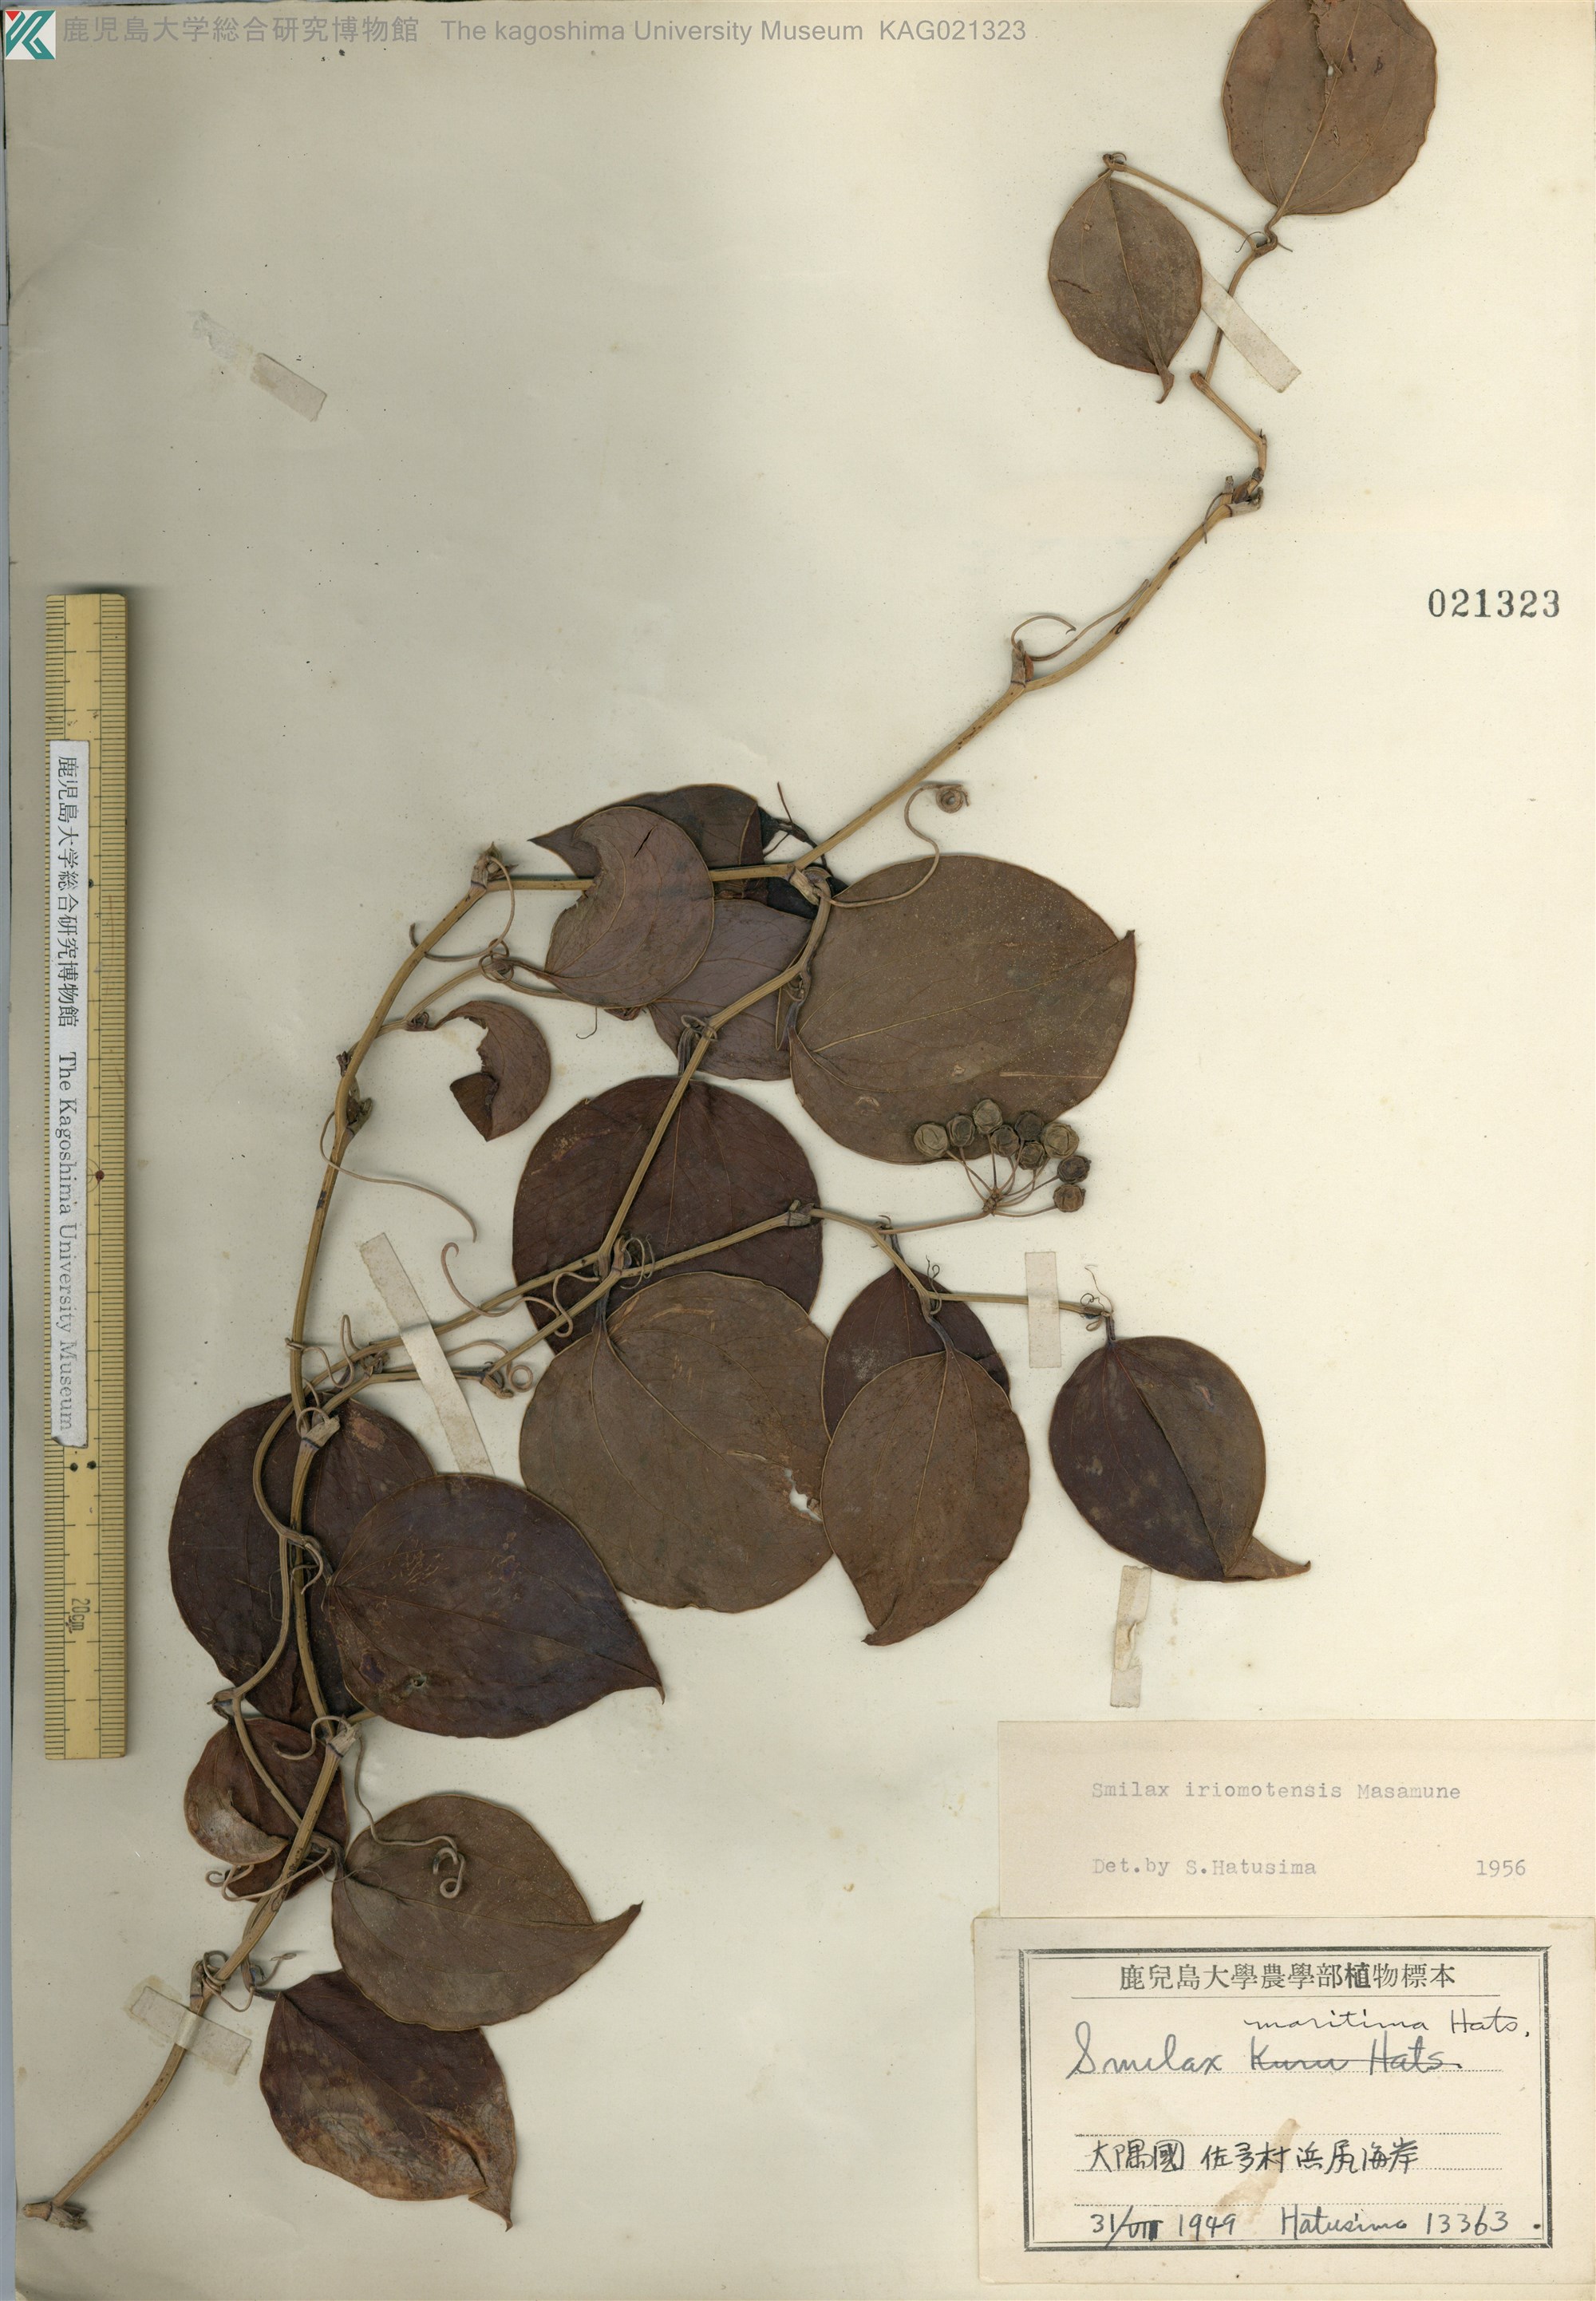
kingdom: Plantae
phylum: Tracheophyta
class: Liliopsida
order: Liliales
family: Smilacaceae
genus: Smilax
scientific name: Smilax sebeana
